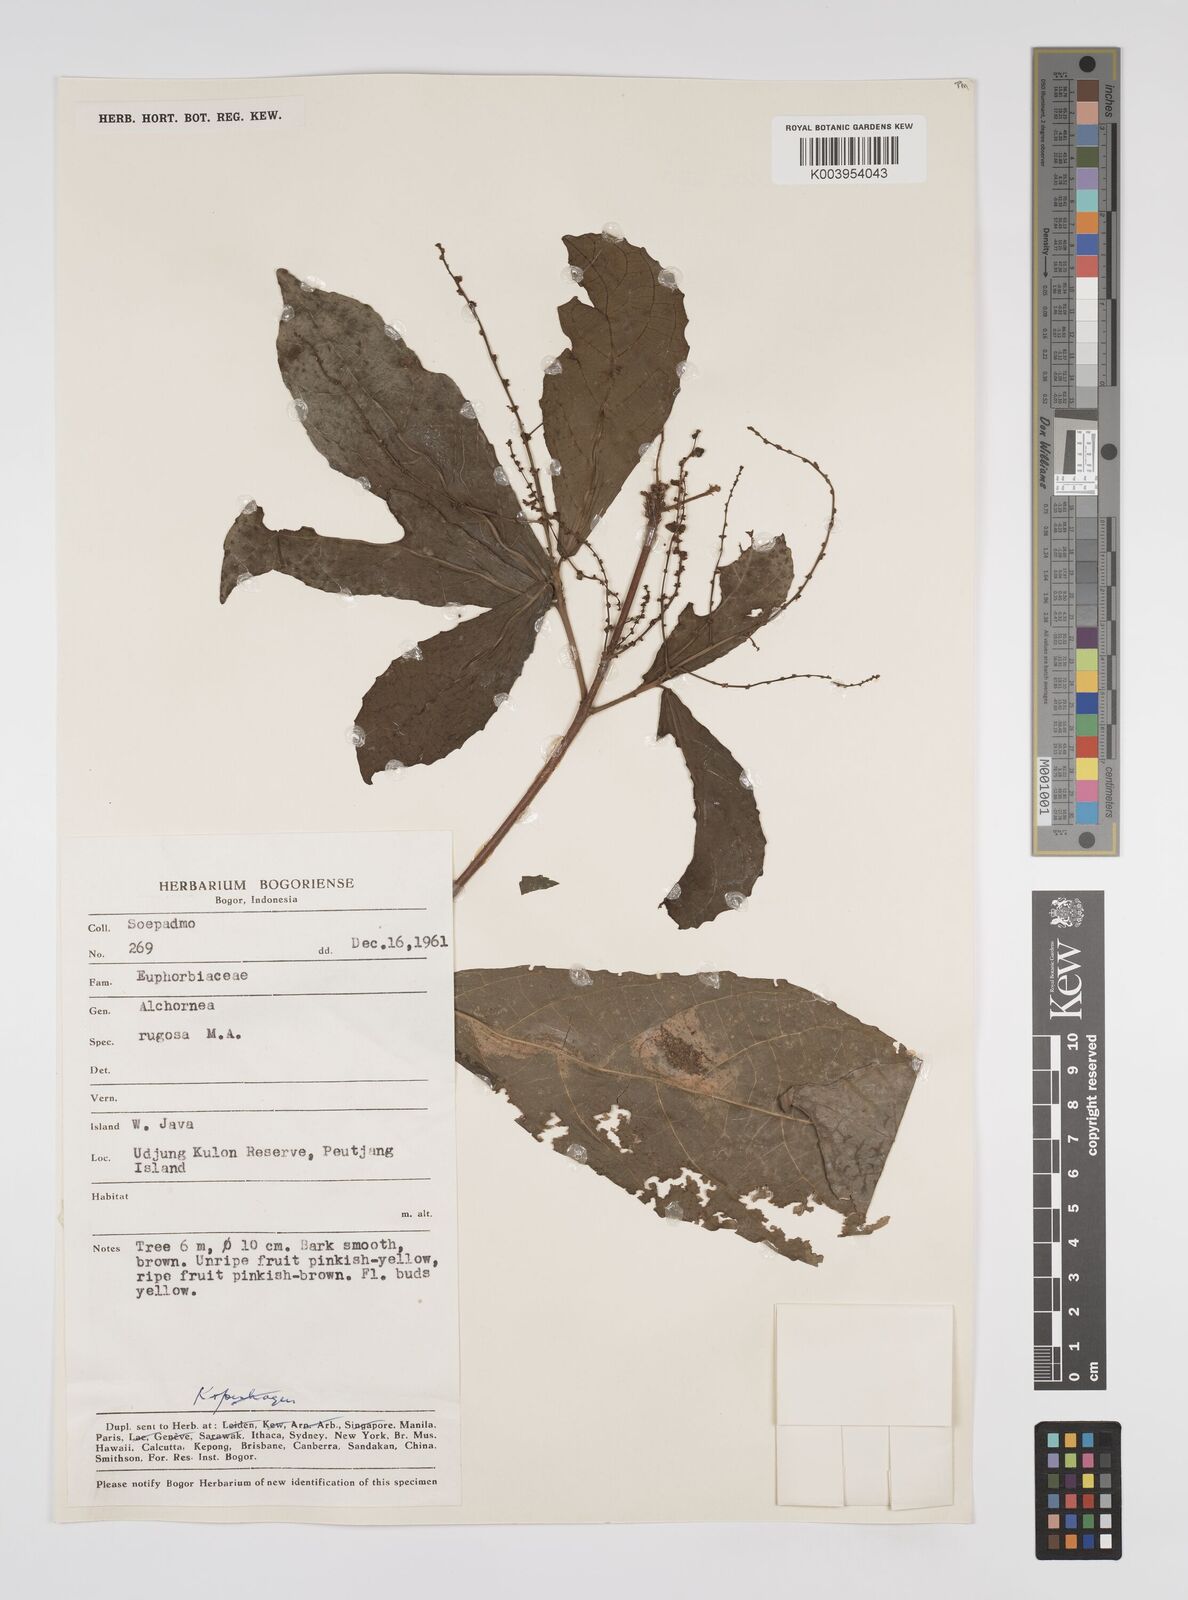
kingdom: Plantae
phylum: Tracheophyta
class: Magnoliopsida
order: Malpighiales
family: Euphorbiaceae
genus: Alchornea
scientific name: Alchornea rugosa
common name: Alchorntree
